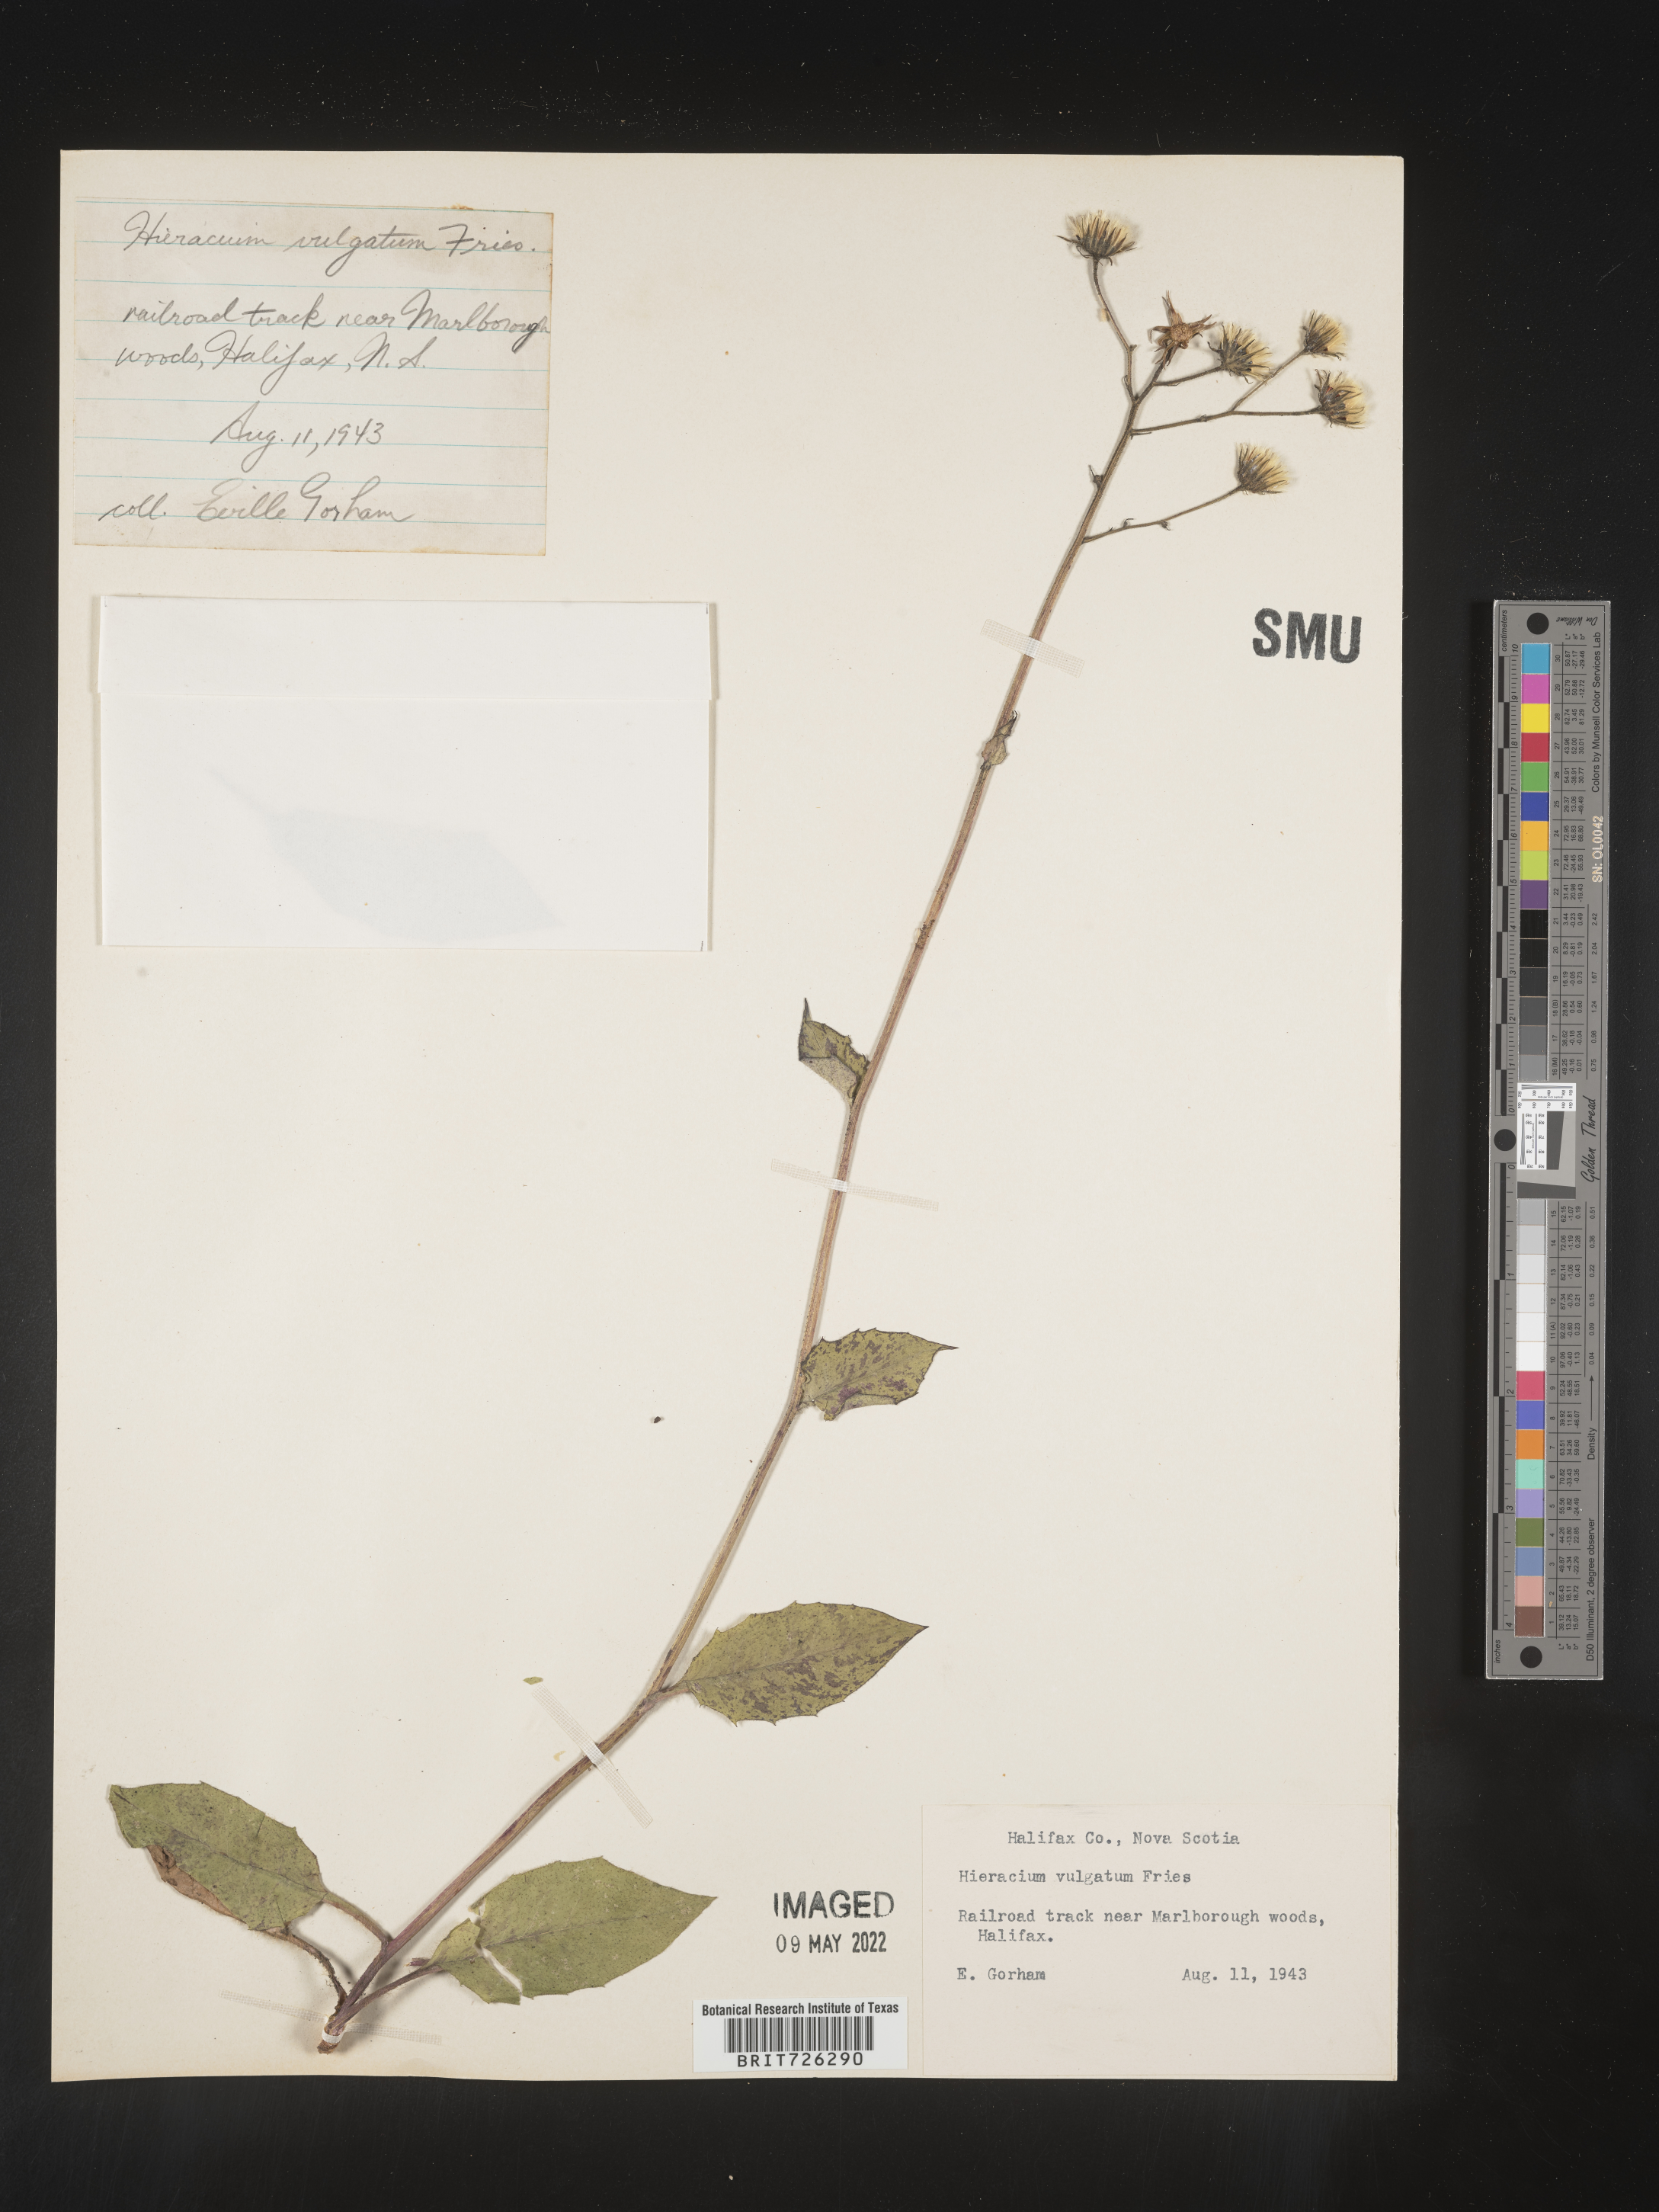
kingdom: Plantae
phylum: Tracheophyta
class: Magnoliopsida
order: Asterales
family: Asteraceae
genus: Hieracium
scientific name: Hieracium
